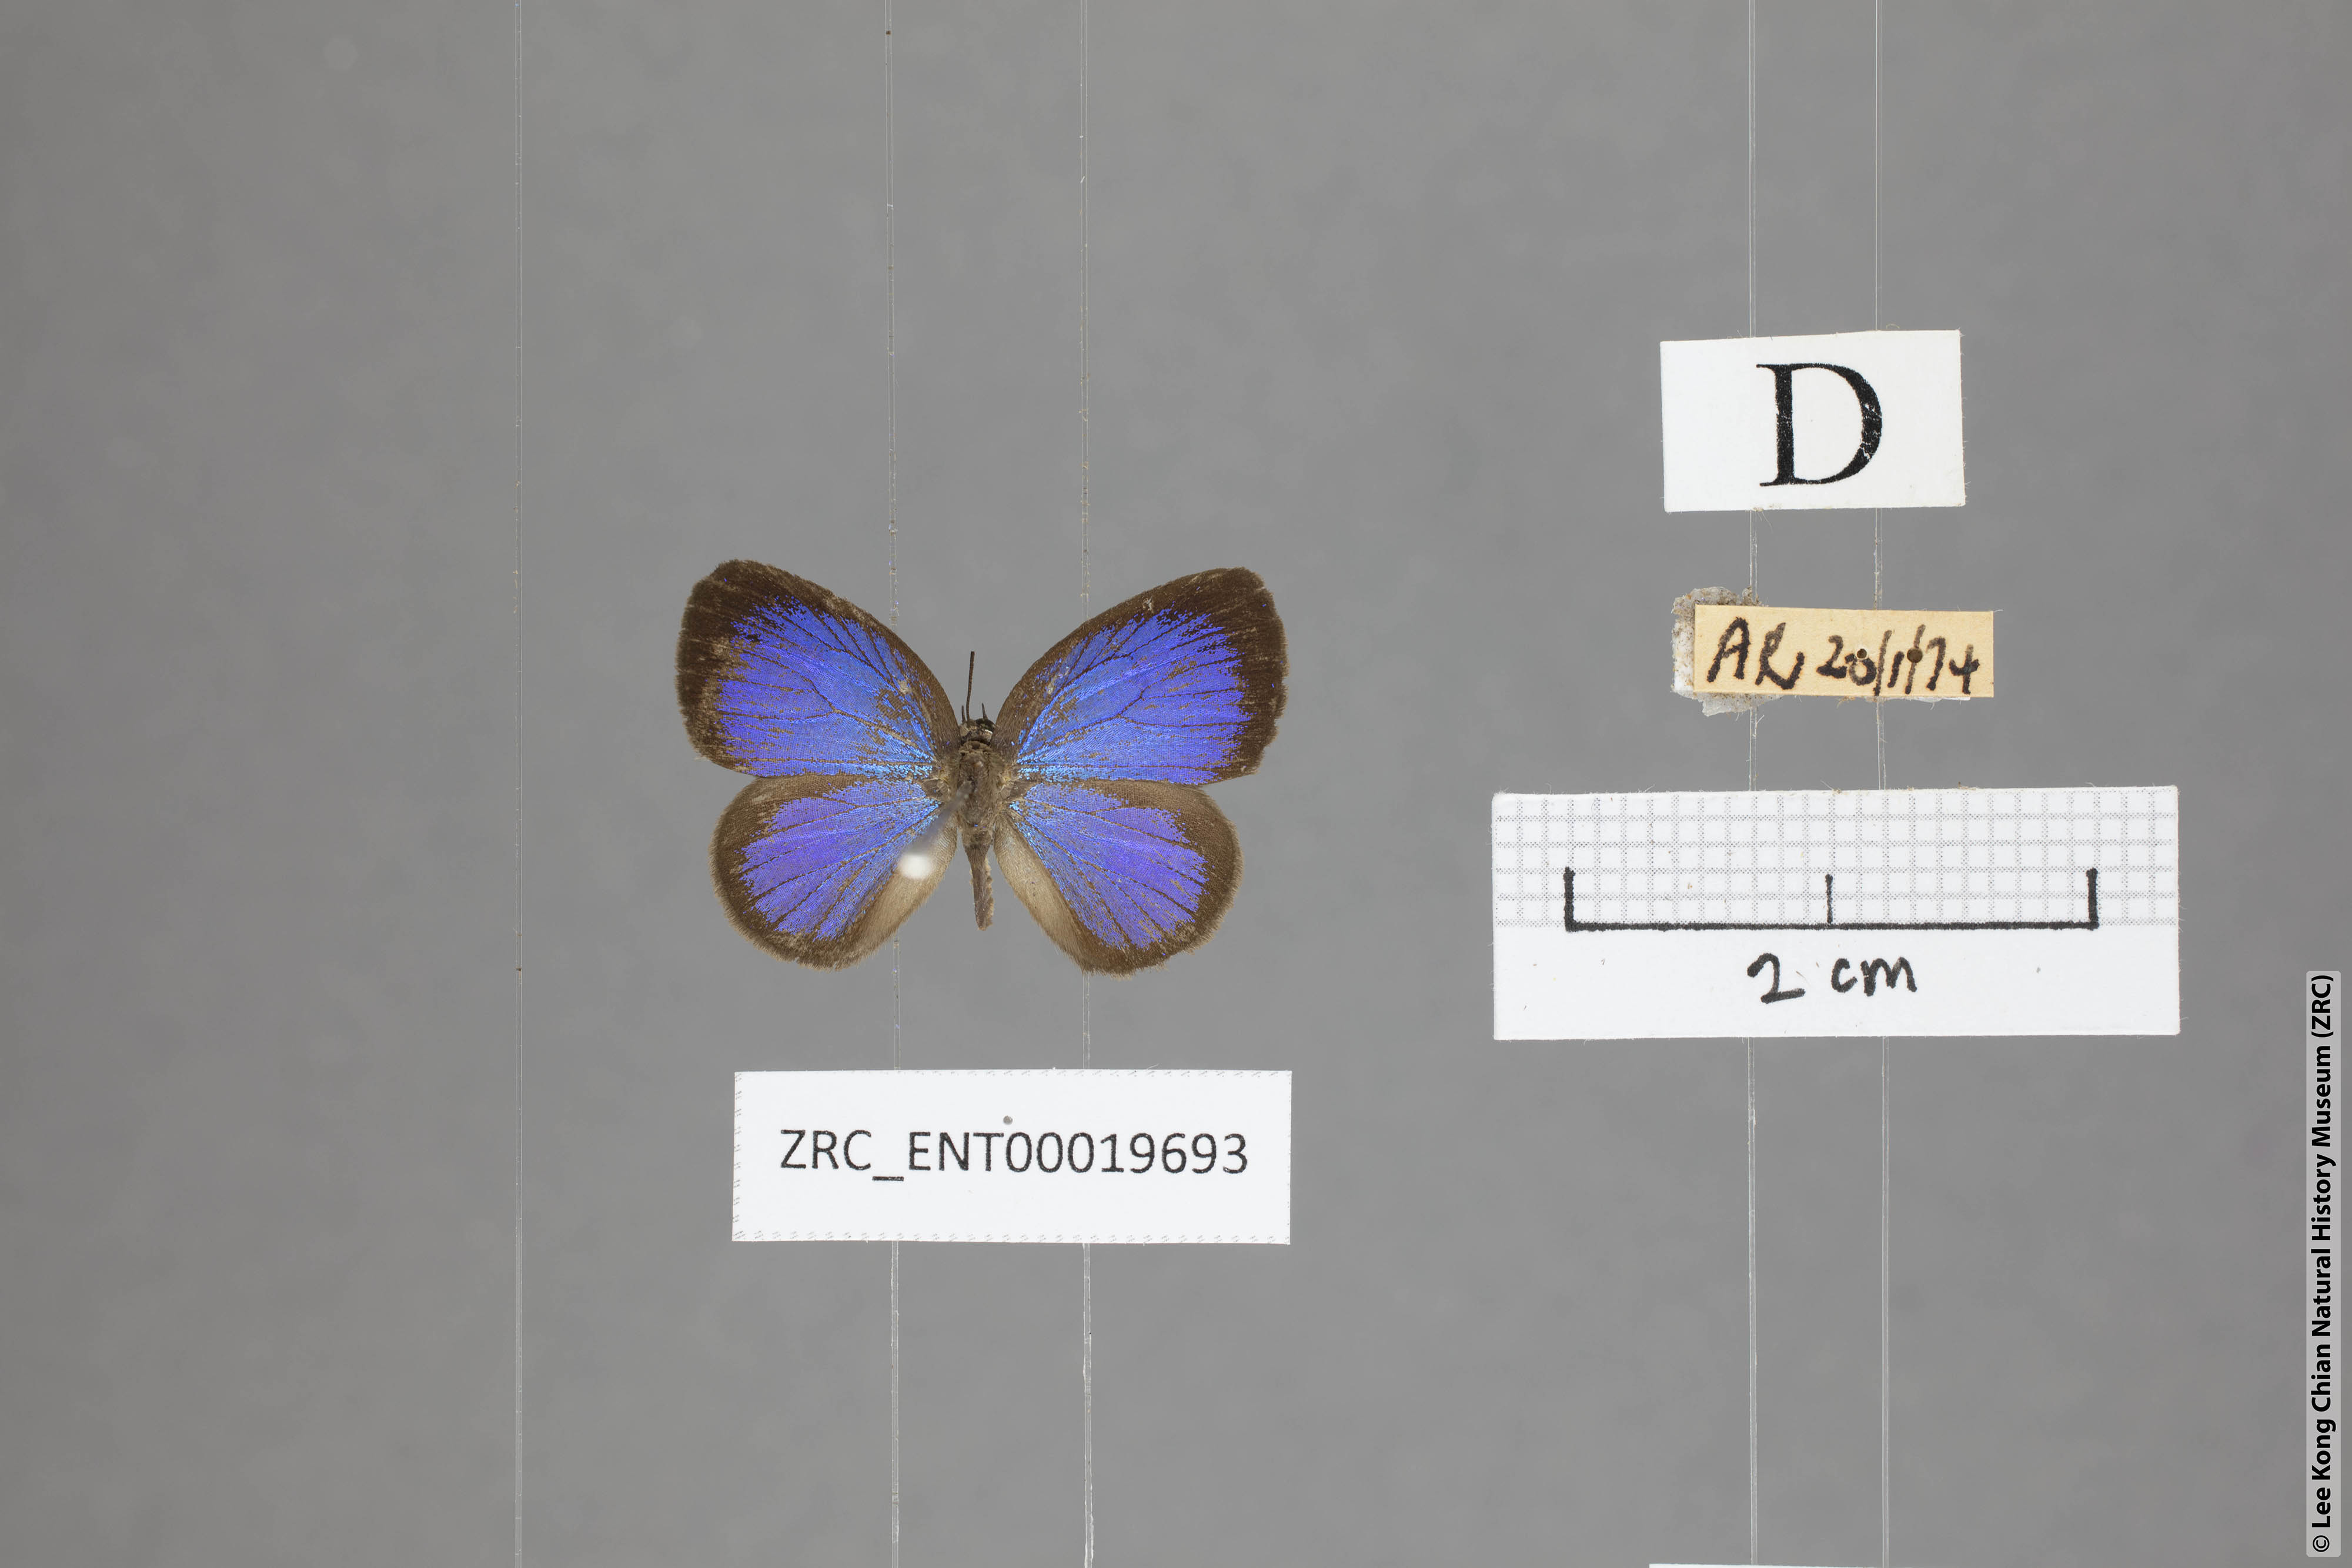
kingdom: Animalia
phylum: Arthropoda
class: Insecta
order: Lepidoptera
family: Lycaenidae
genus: Arhopala
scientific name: Arhopala moorei
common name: Moore's oakblue
